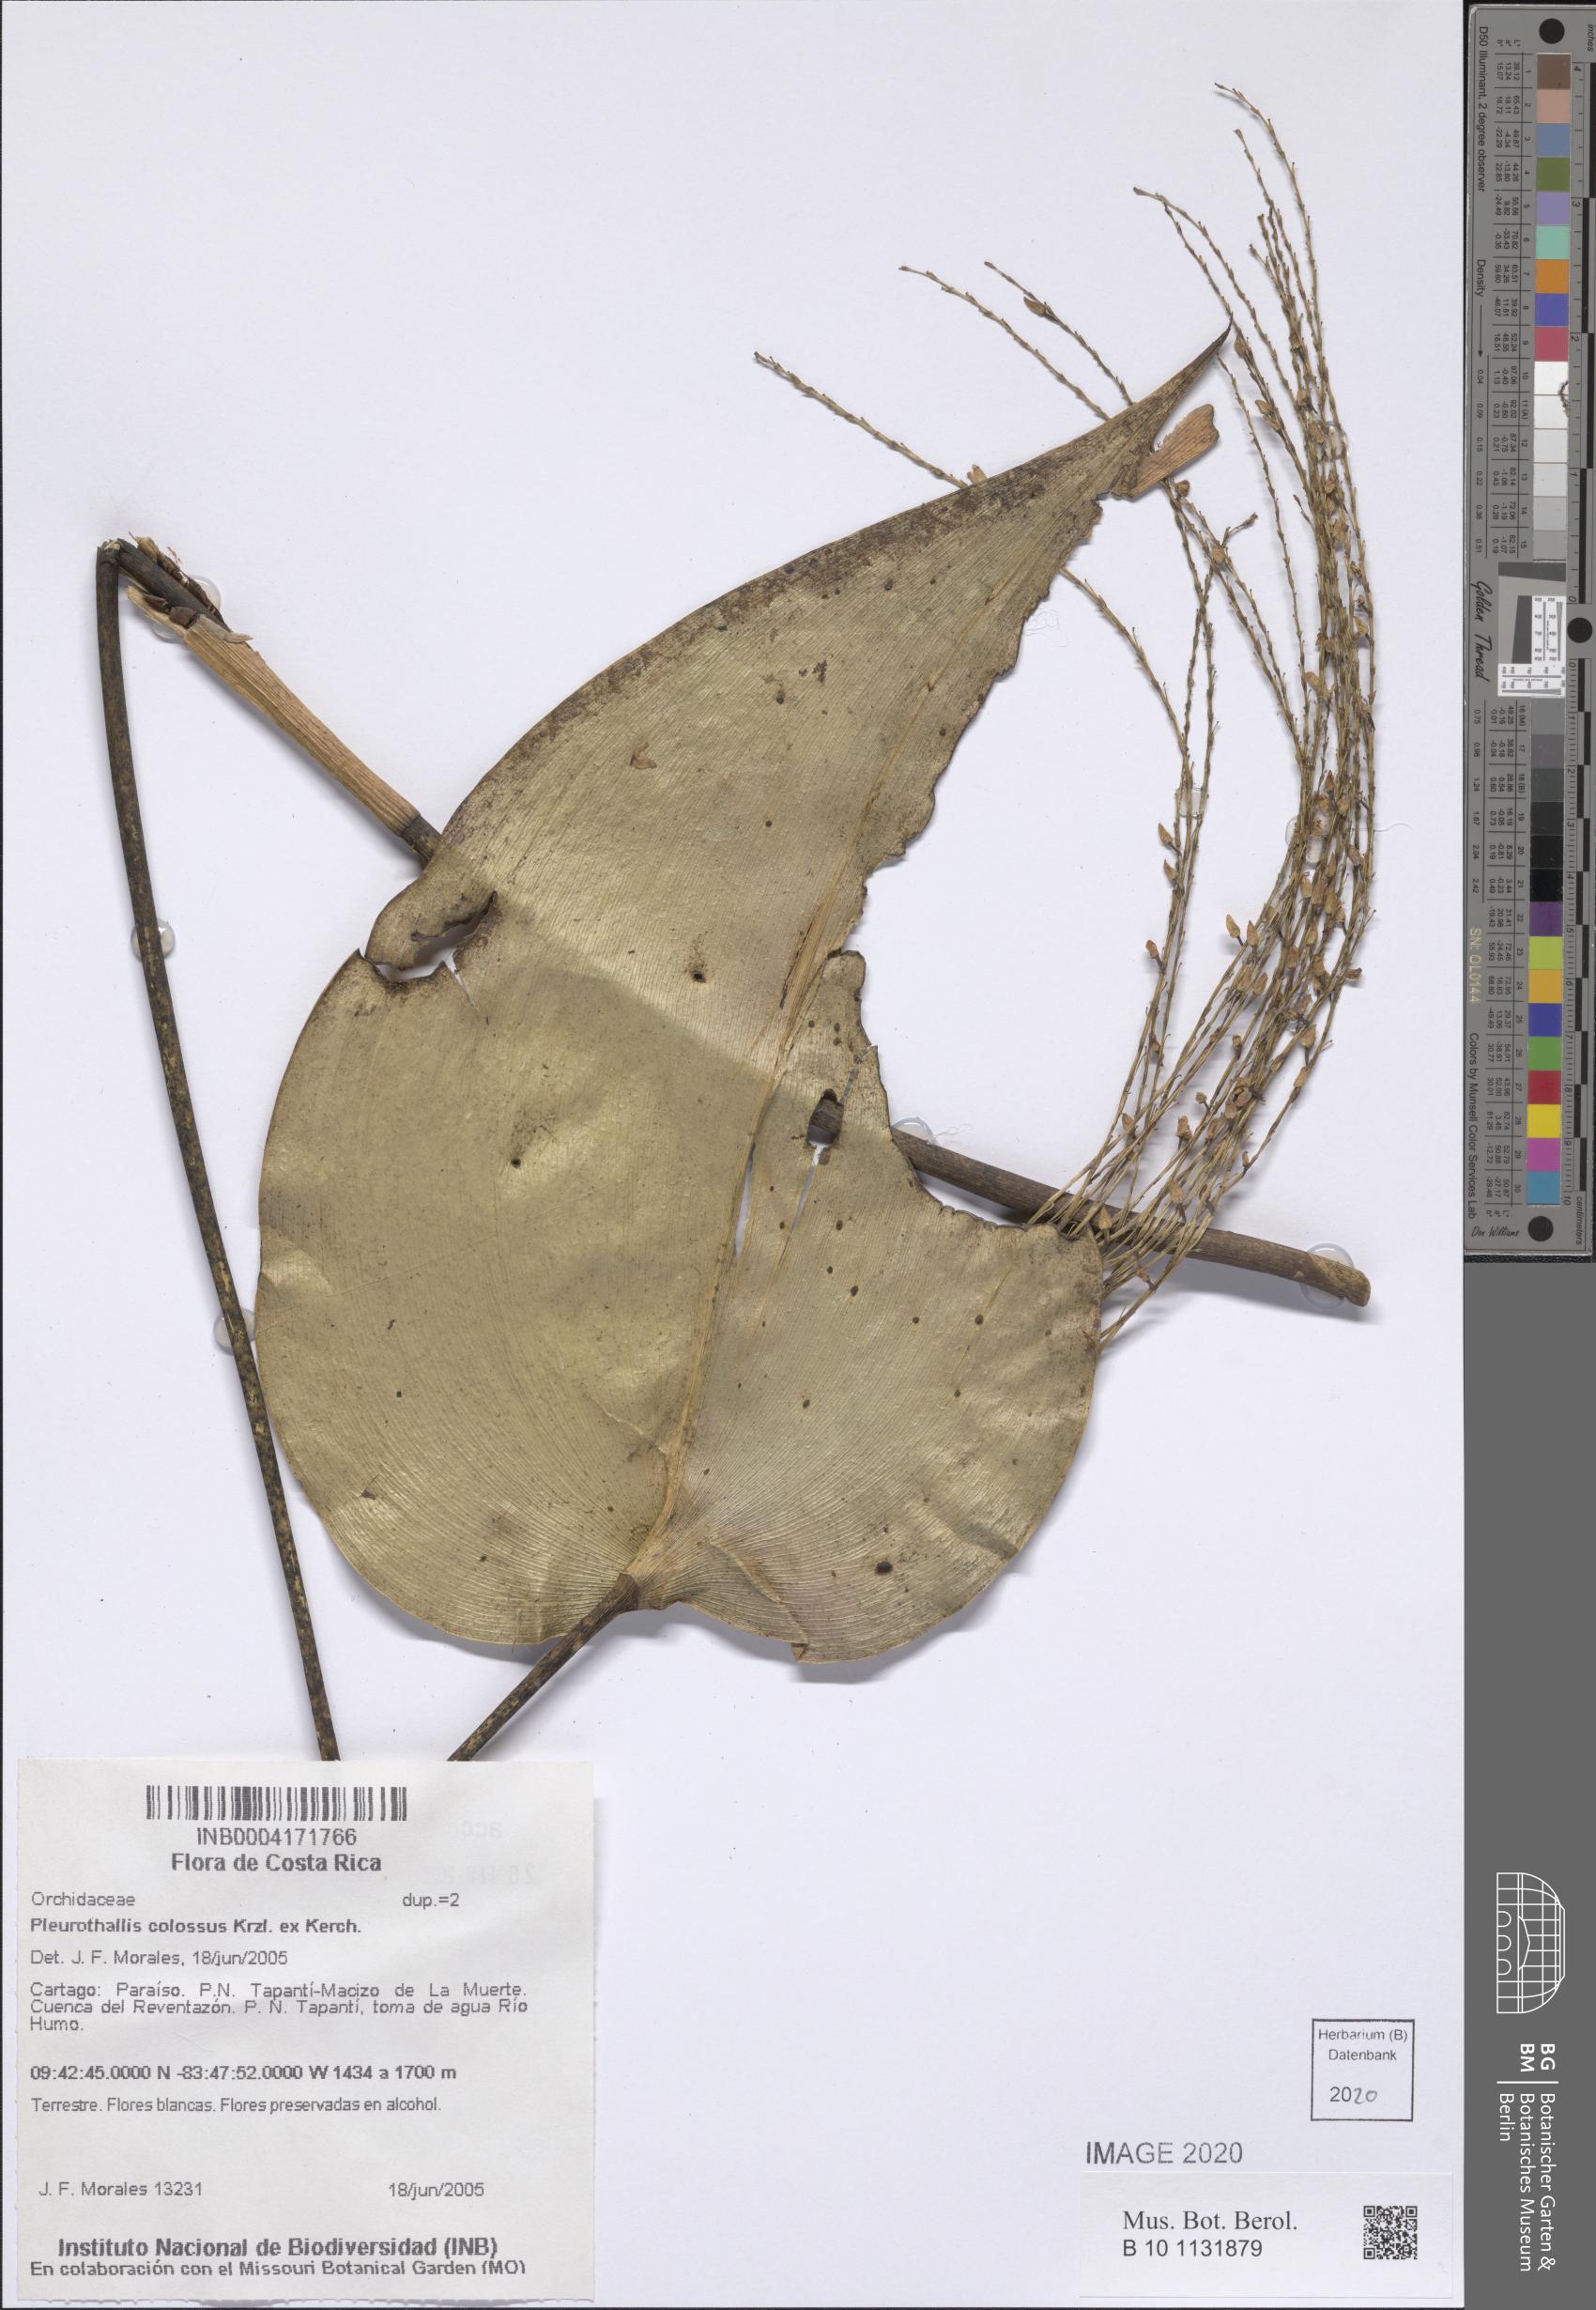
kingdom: Plantae
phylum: Tracheophyta
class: Liliopsida
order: Asparagales
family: Orchidaceae
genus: Pleurothallis
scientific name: Pleurothallis colossus
